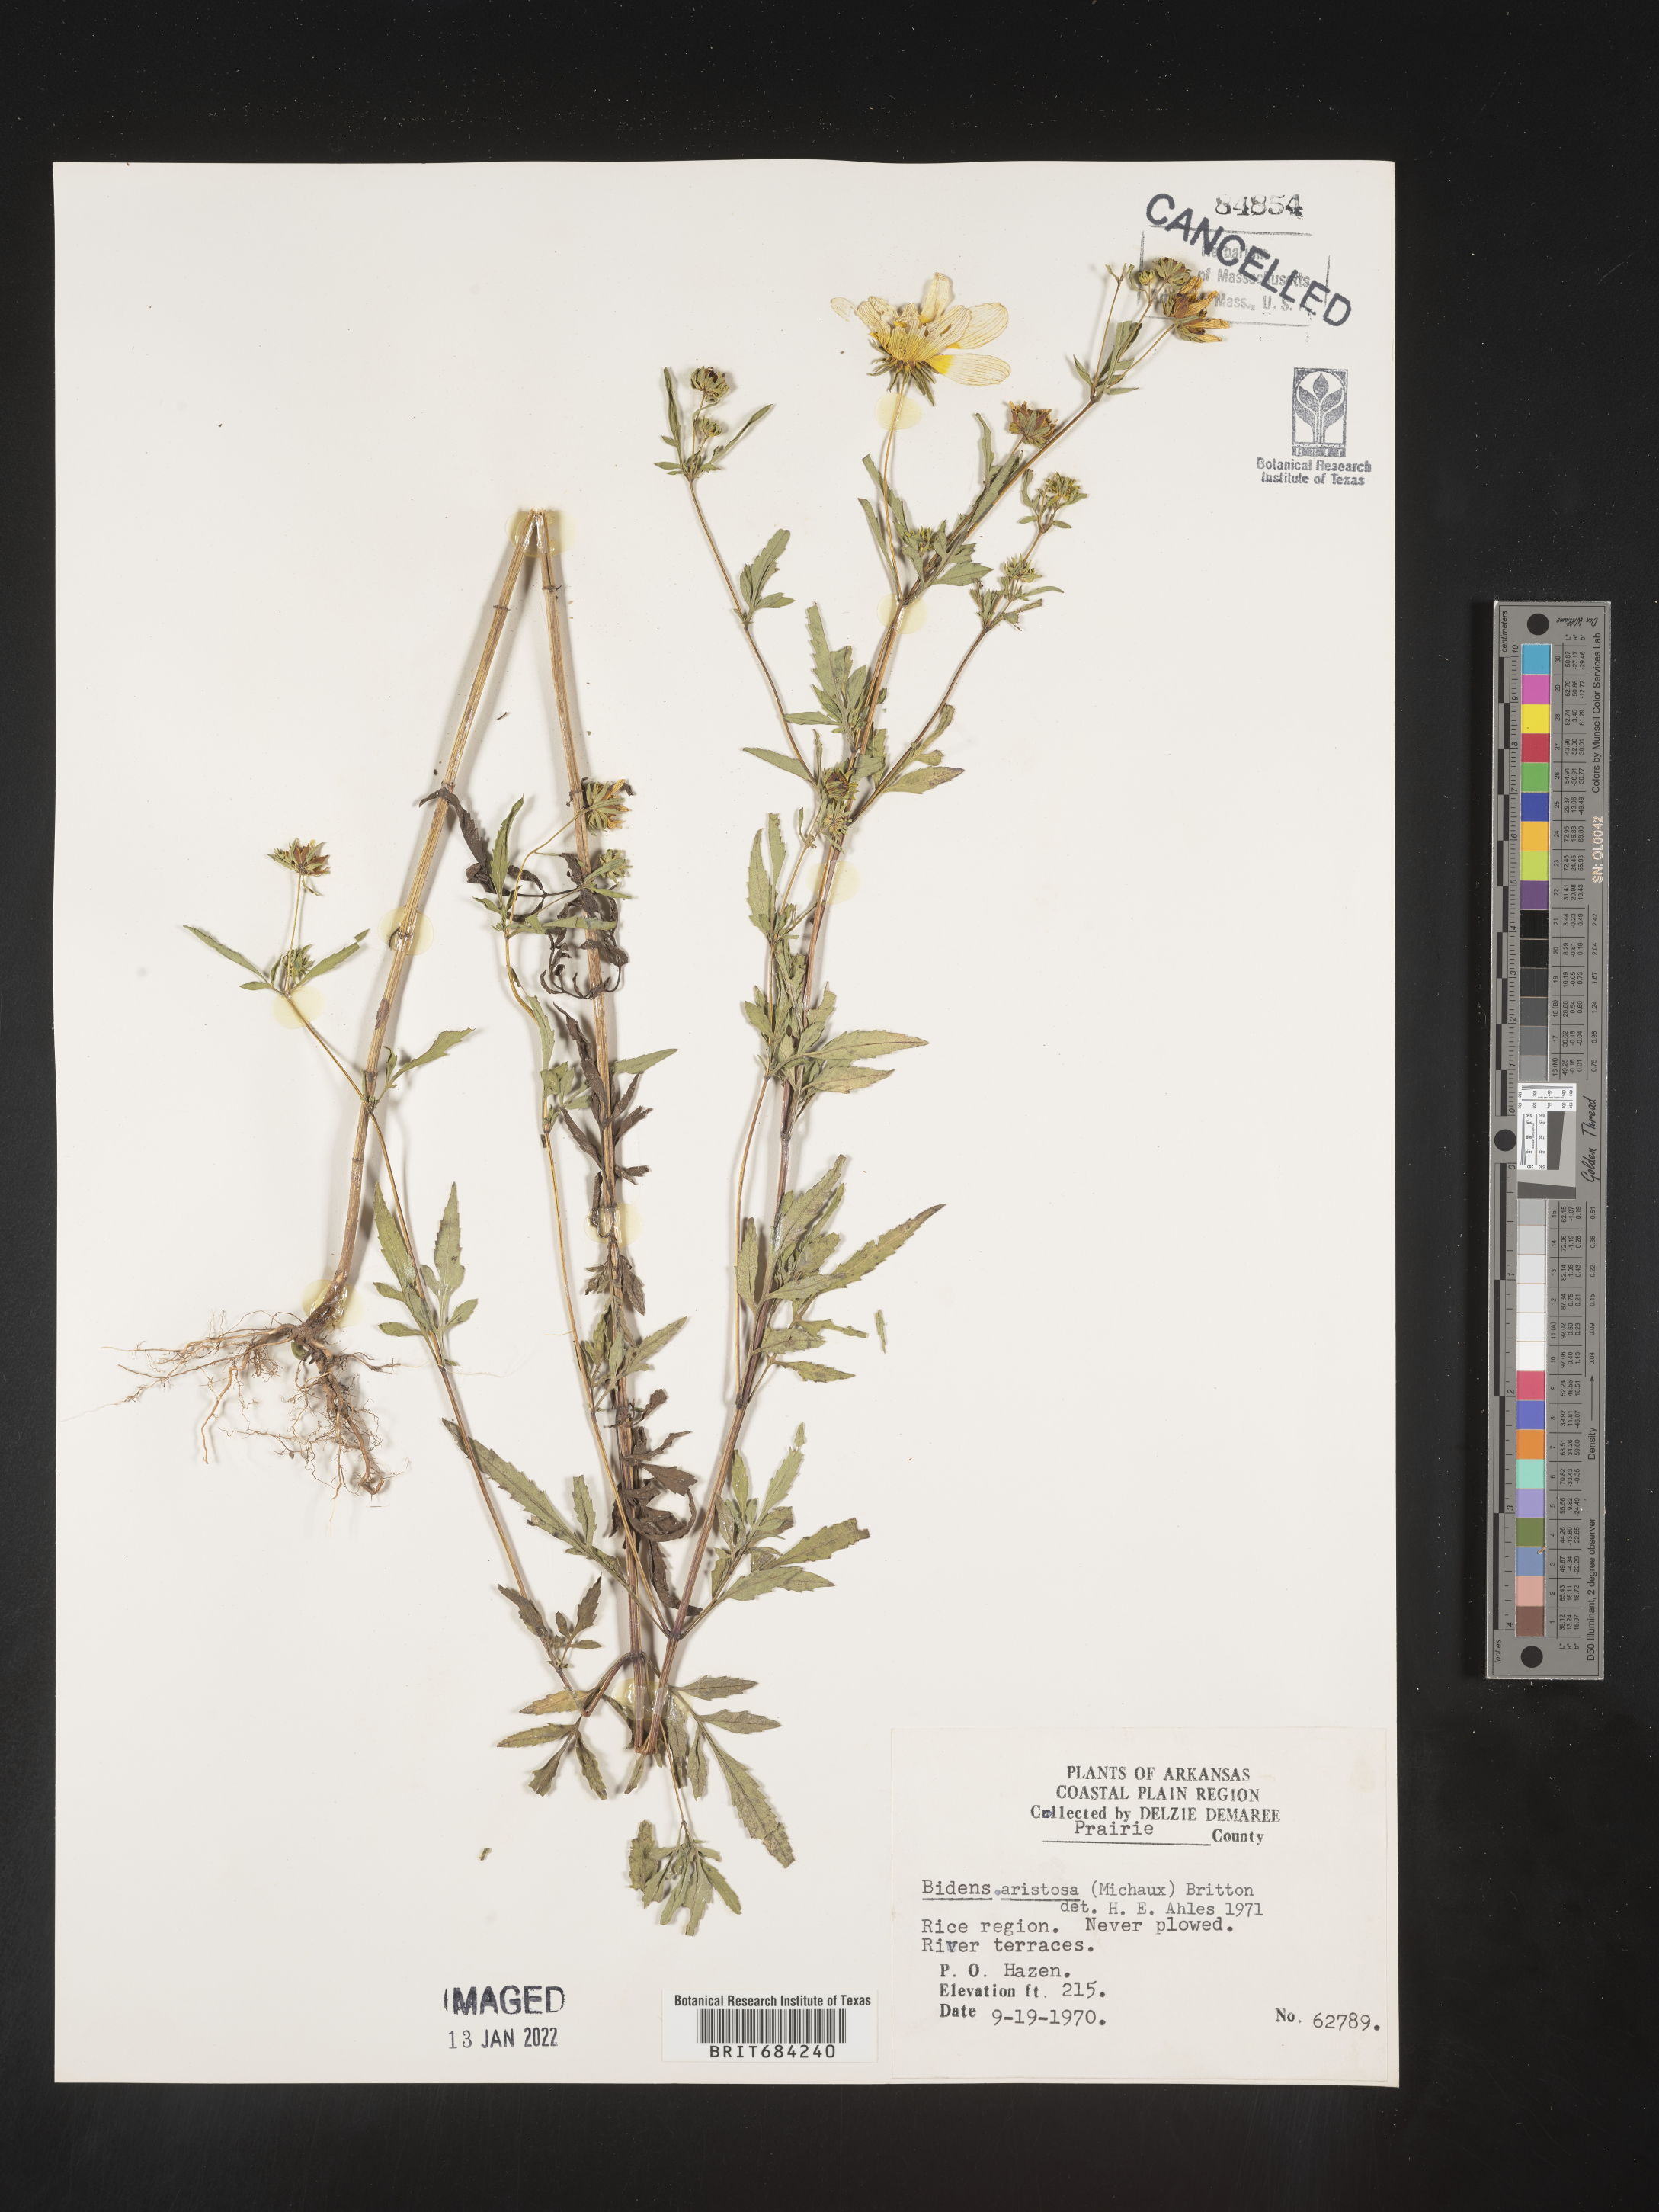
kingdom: Plantae
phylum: Tracheophyta
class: Magnoliopsida
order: Asterales
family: Asteraceae
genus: Bidens
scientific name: Bidens aristosa
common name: Western tickseed
